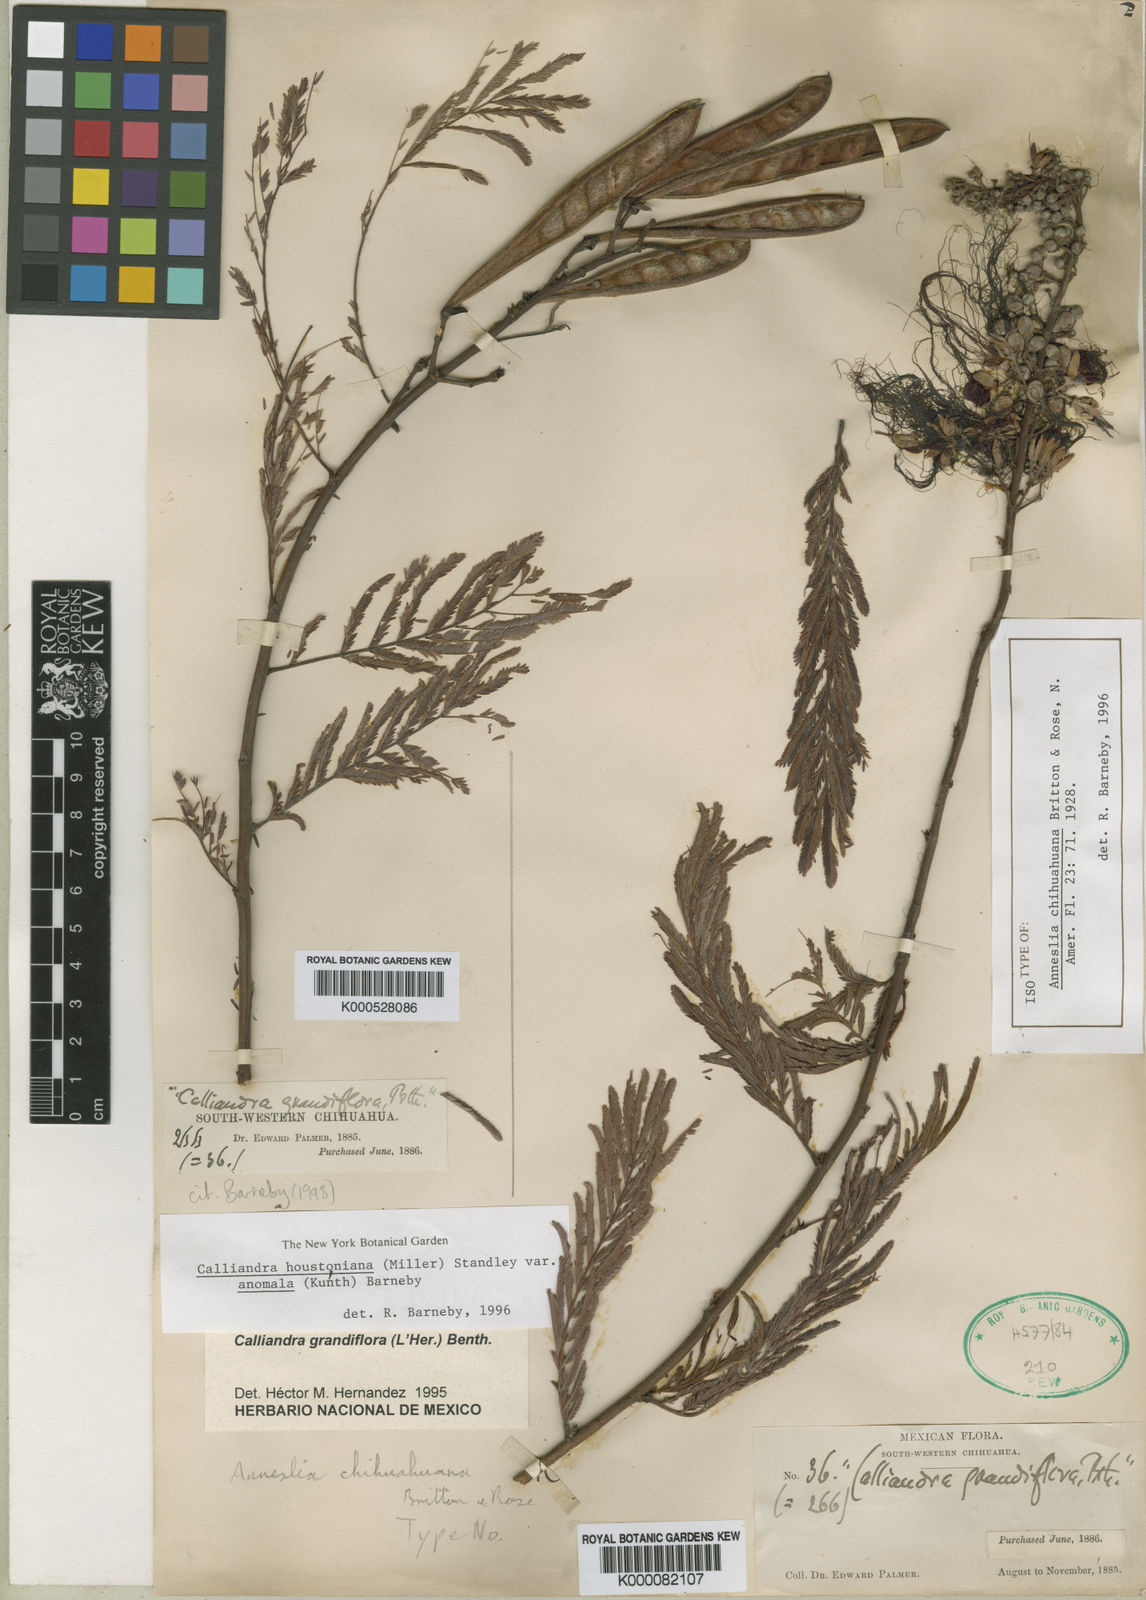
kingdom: Plantae
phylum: Tracheophyta
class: Magnoliopsida
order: Fabales
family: Fabaceae
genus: Calliandra
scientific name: Calliandra houstoniana
